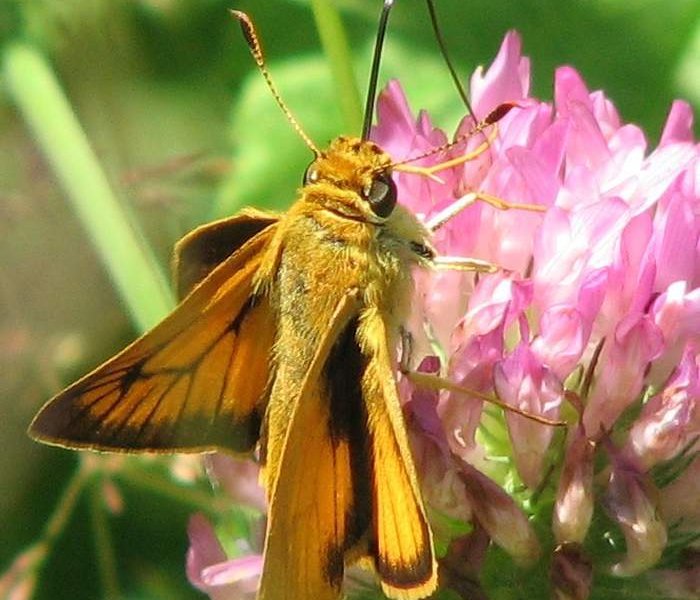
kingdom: Animalia
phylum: Arthropoda
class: Insecta
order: Lepidoptera
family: Hesperiidae
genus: Atrytone
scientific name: Atrytone delaware
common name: Delaware Skipper
